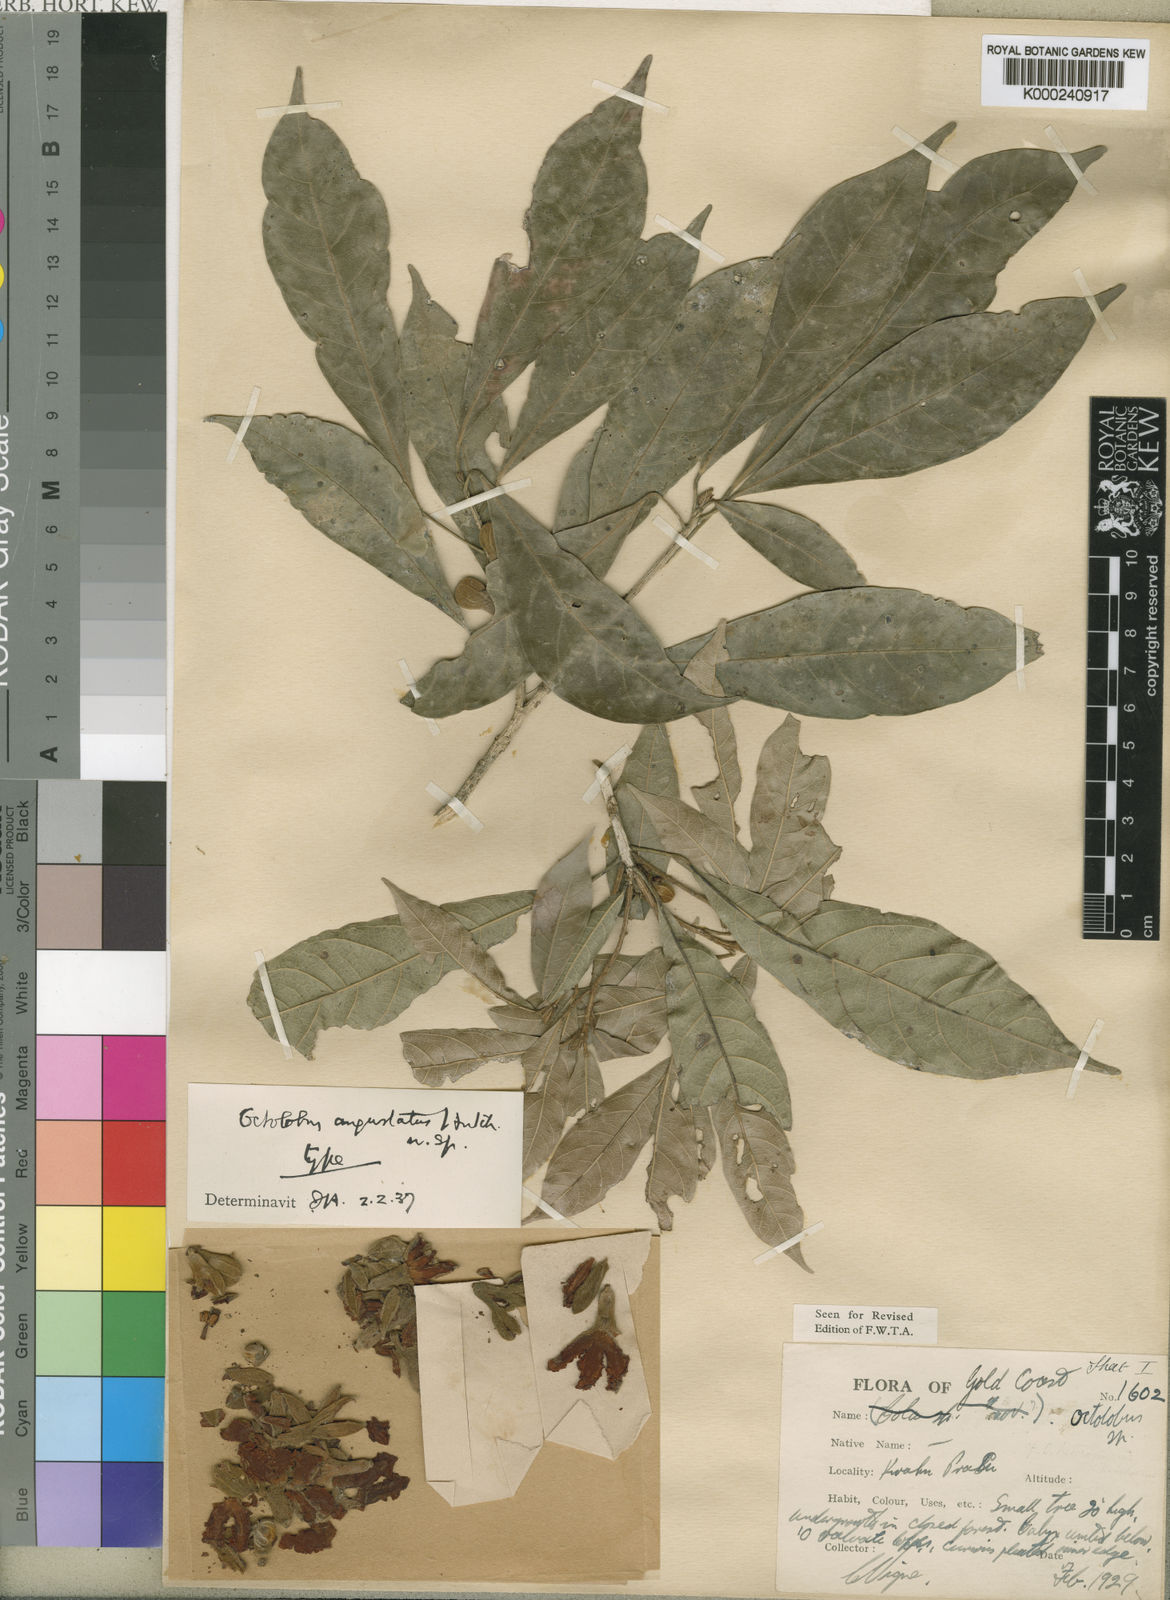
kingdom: Plantae
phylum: Tracheophyta
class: Magnoliopsida
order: Malvales
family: Malvaceae
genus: Octolobus
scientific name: Octolobus spectabilis
